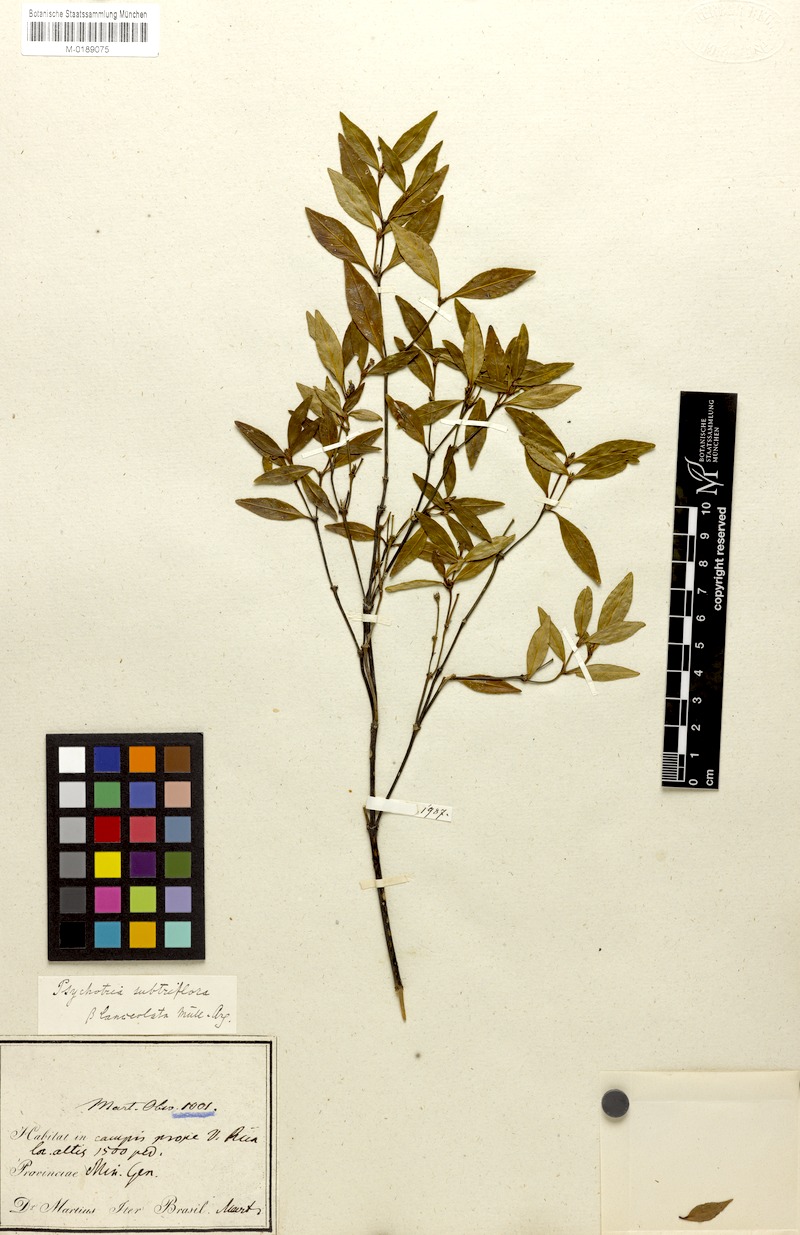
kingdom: Plantae
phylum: Tracheophyta
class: Magnoliopsida
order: Gentianales
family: Rubiaceae
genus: Psychotria
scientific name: Psychotria subtriflora
